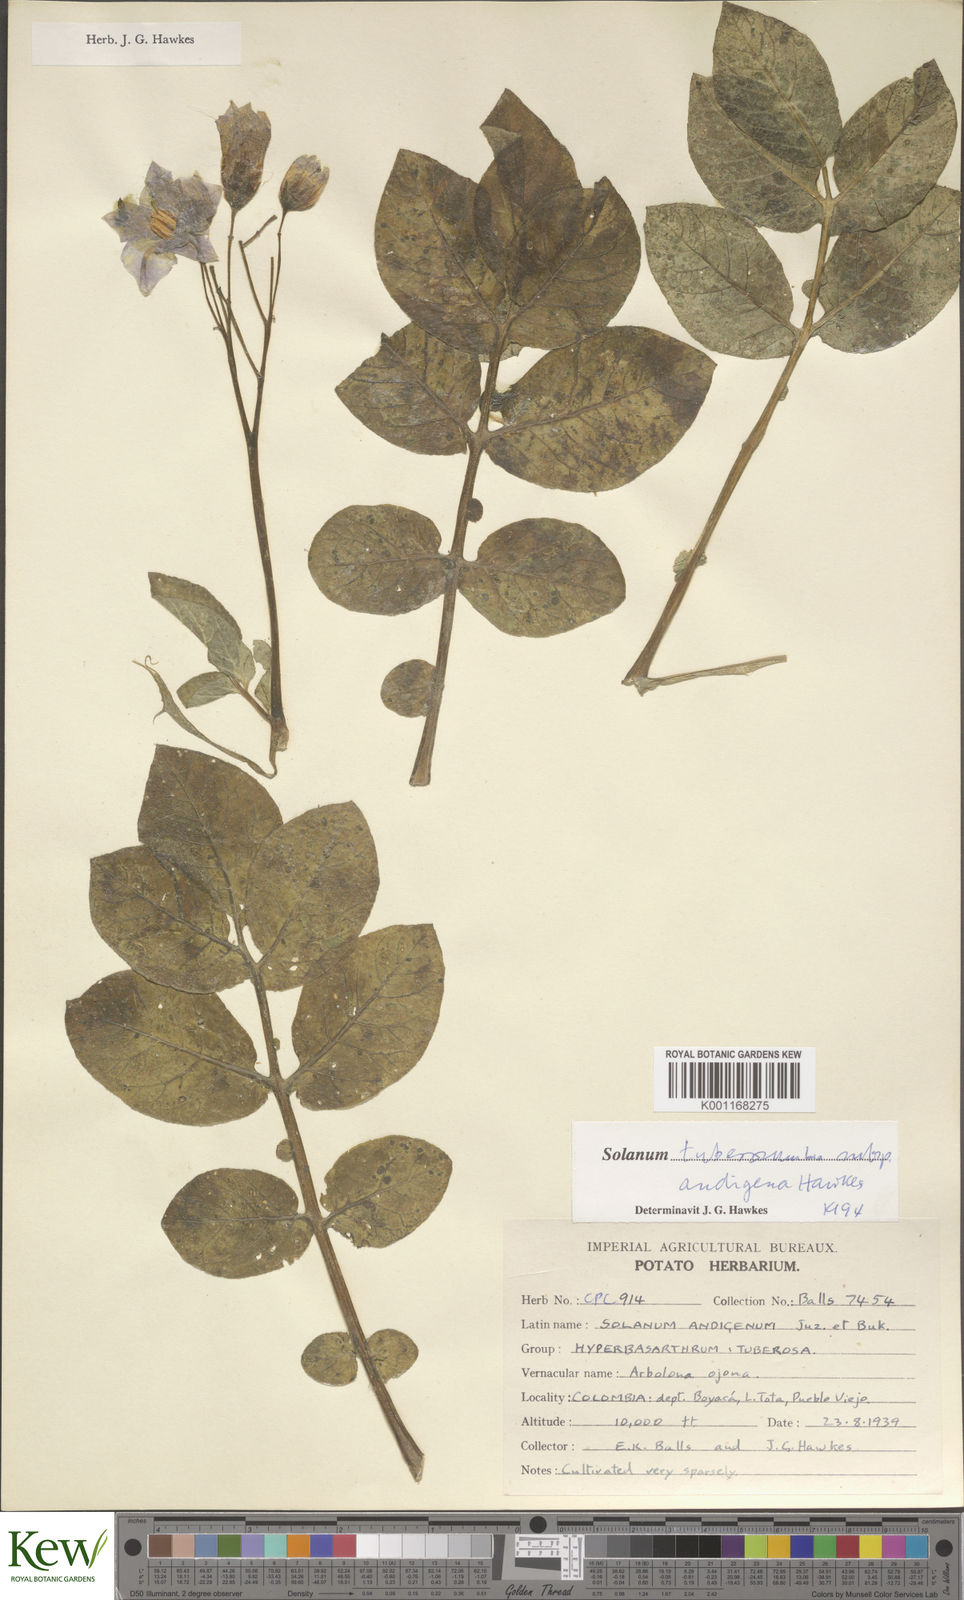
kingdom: Plantae
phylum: Tracheophyta
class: Magnoliopsida
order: Solanales
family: Solanaceae
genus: Solanum
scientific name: Solanum tuberosum
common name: Potato
